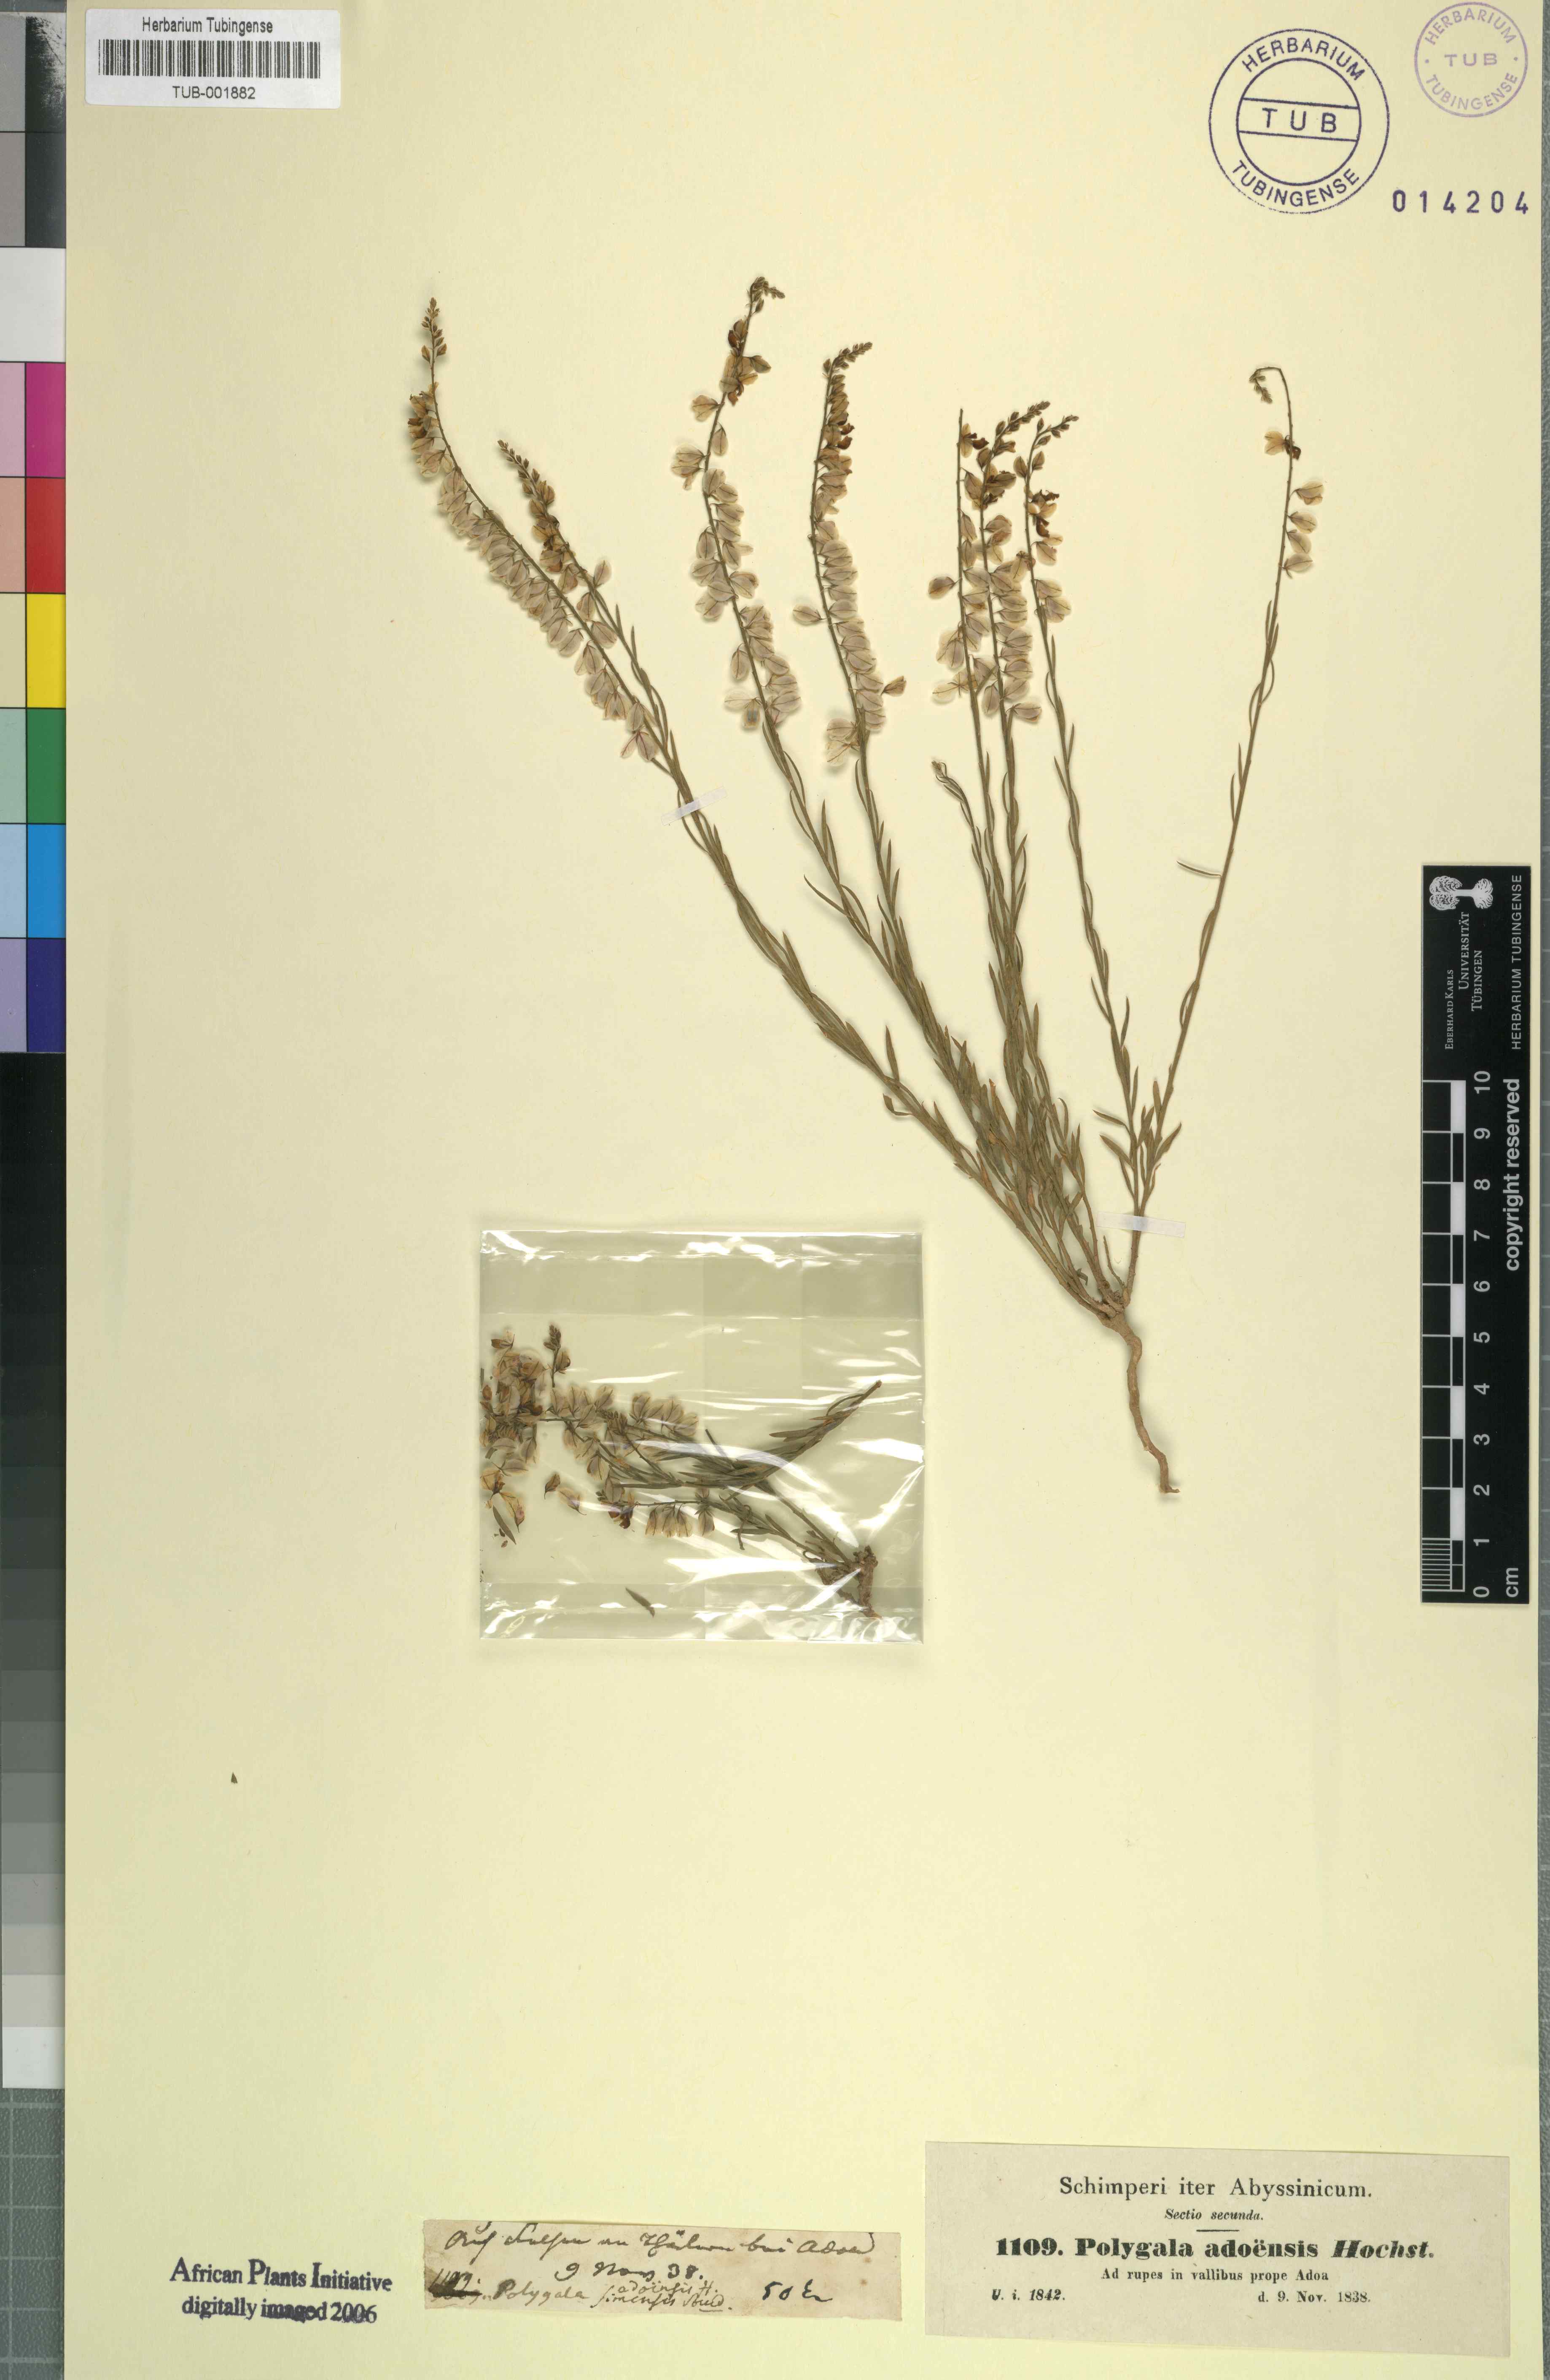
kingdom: Plantae
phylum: Tracheophyta
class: Magnoliopsida
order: Fabales
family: Polygalaceae
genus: Polygala
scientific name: Polygala abyssinica
